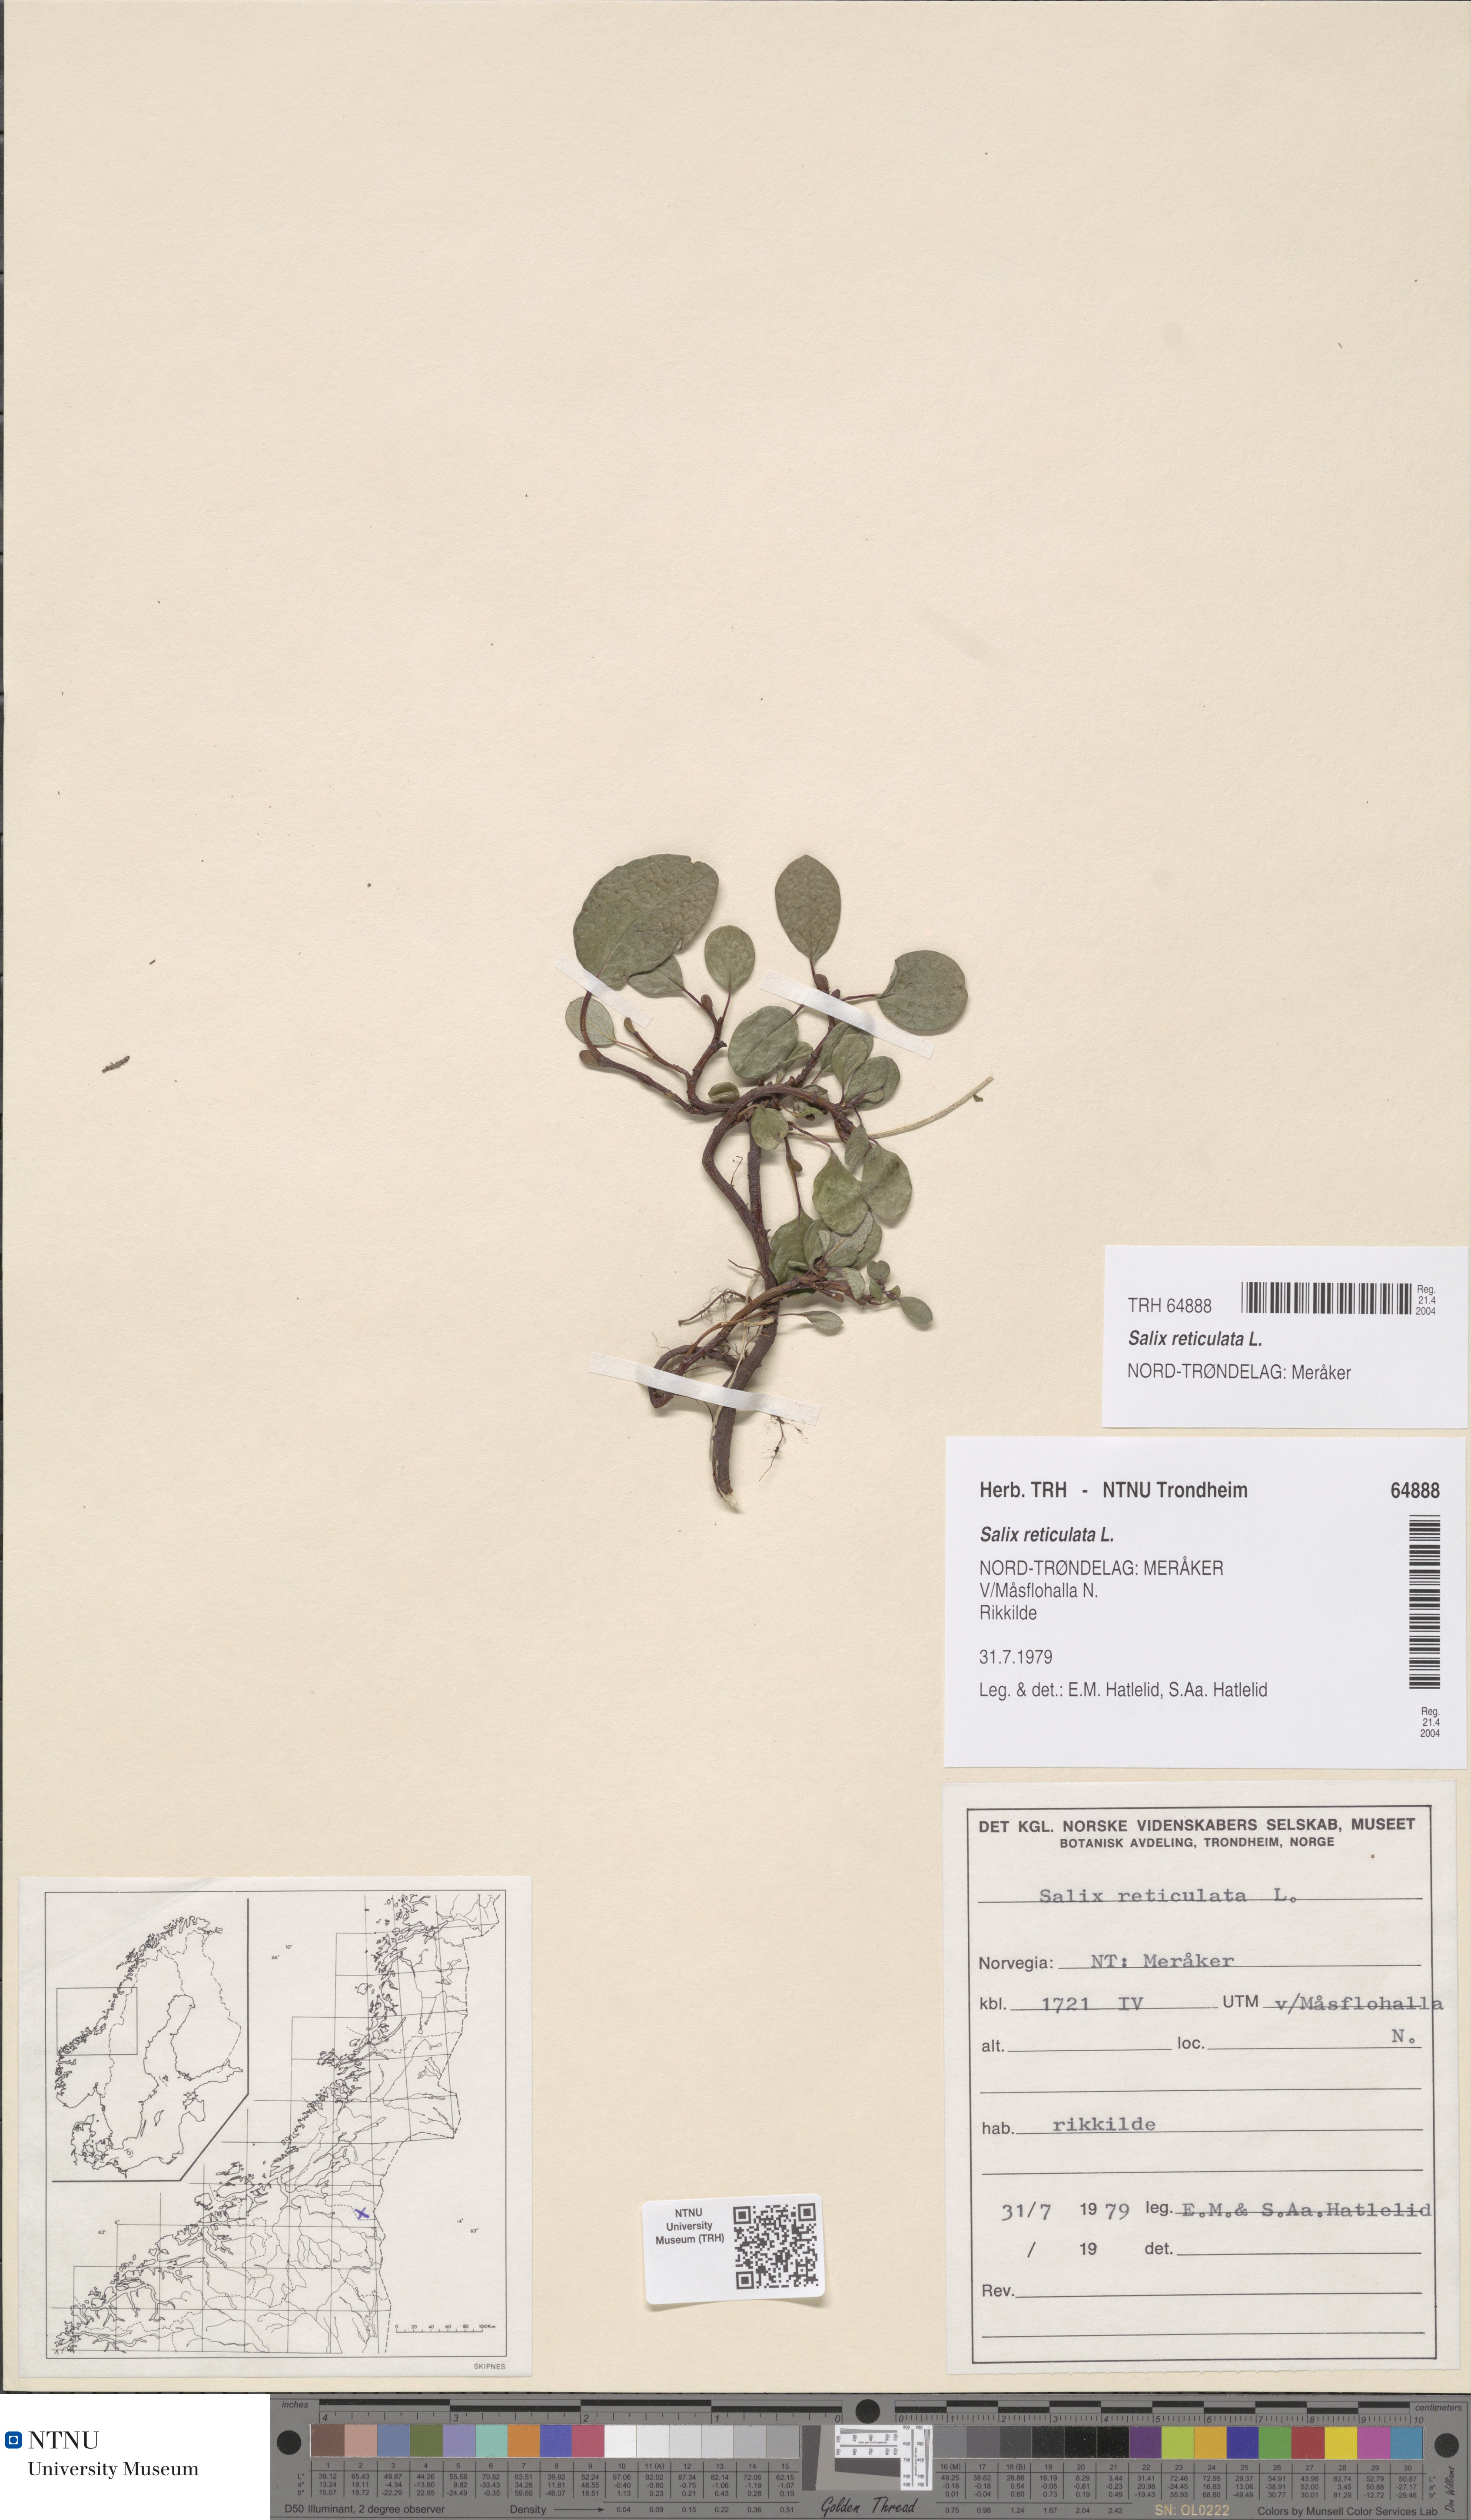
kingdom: Plantae
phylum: Tracheophyta
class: Magnoliopsida
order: Malpighiales
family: Salicaceae
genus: Salix
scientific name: Salix reticulata
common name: Net-leaved willow
